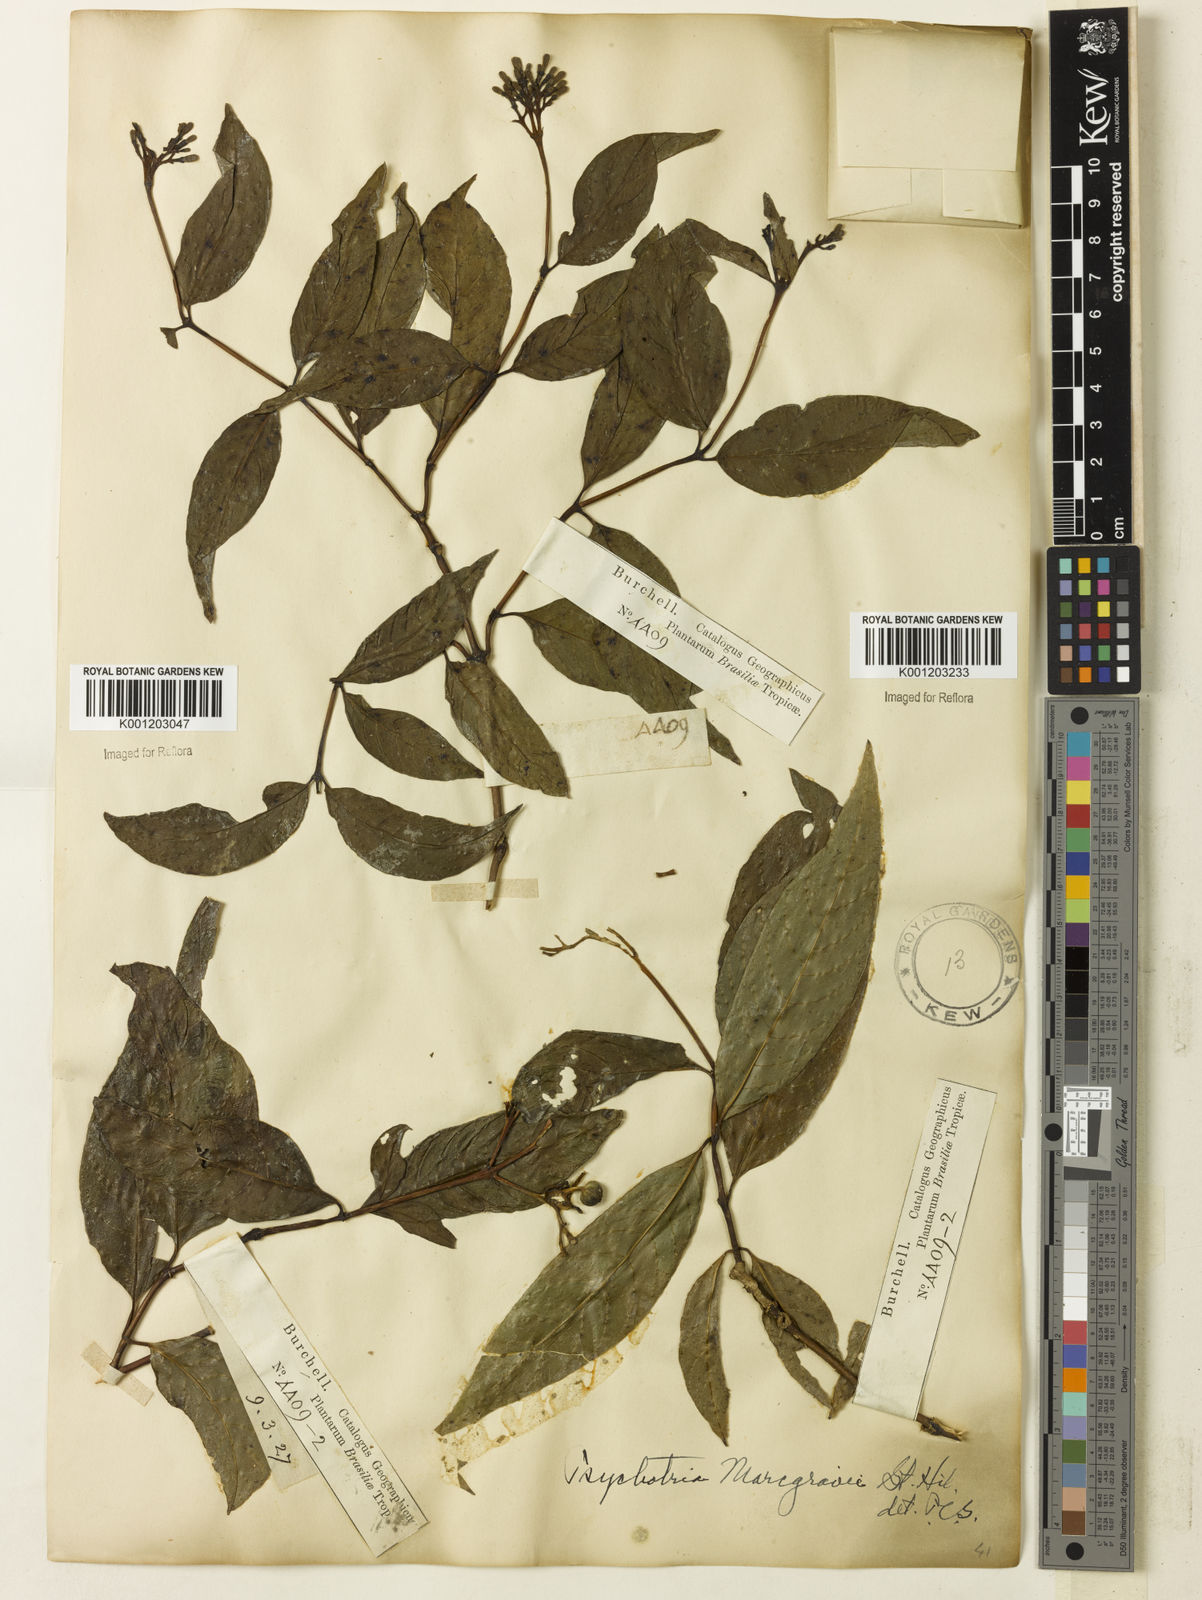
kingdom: Plantae
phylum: Tracheophyta
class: Magnoliopsida
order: Gentianales
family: Rubiaceae
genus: Palicourea
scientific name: Palicourea marcgravii
